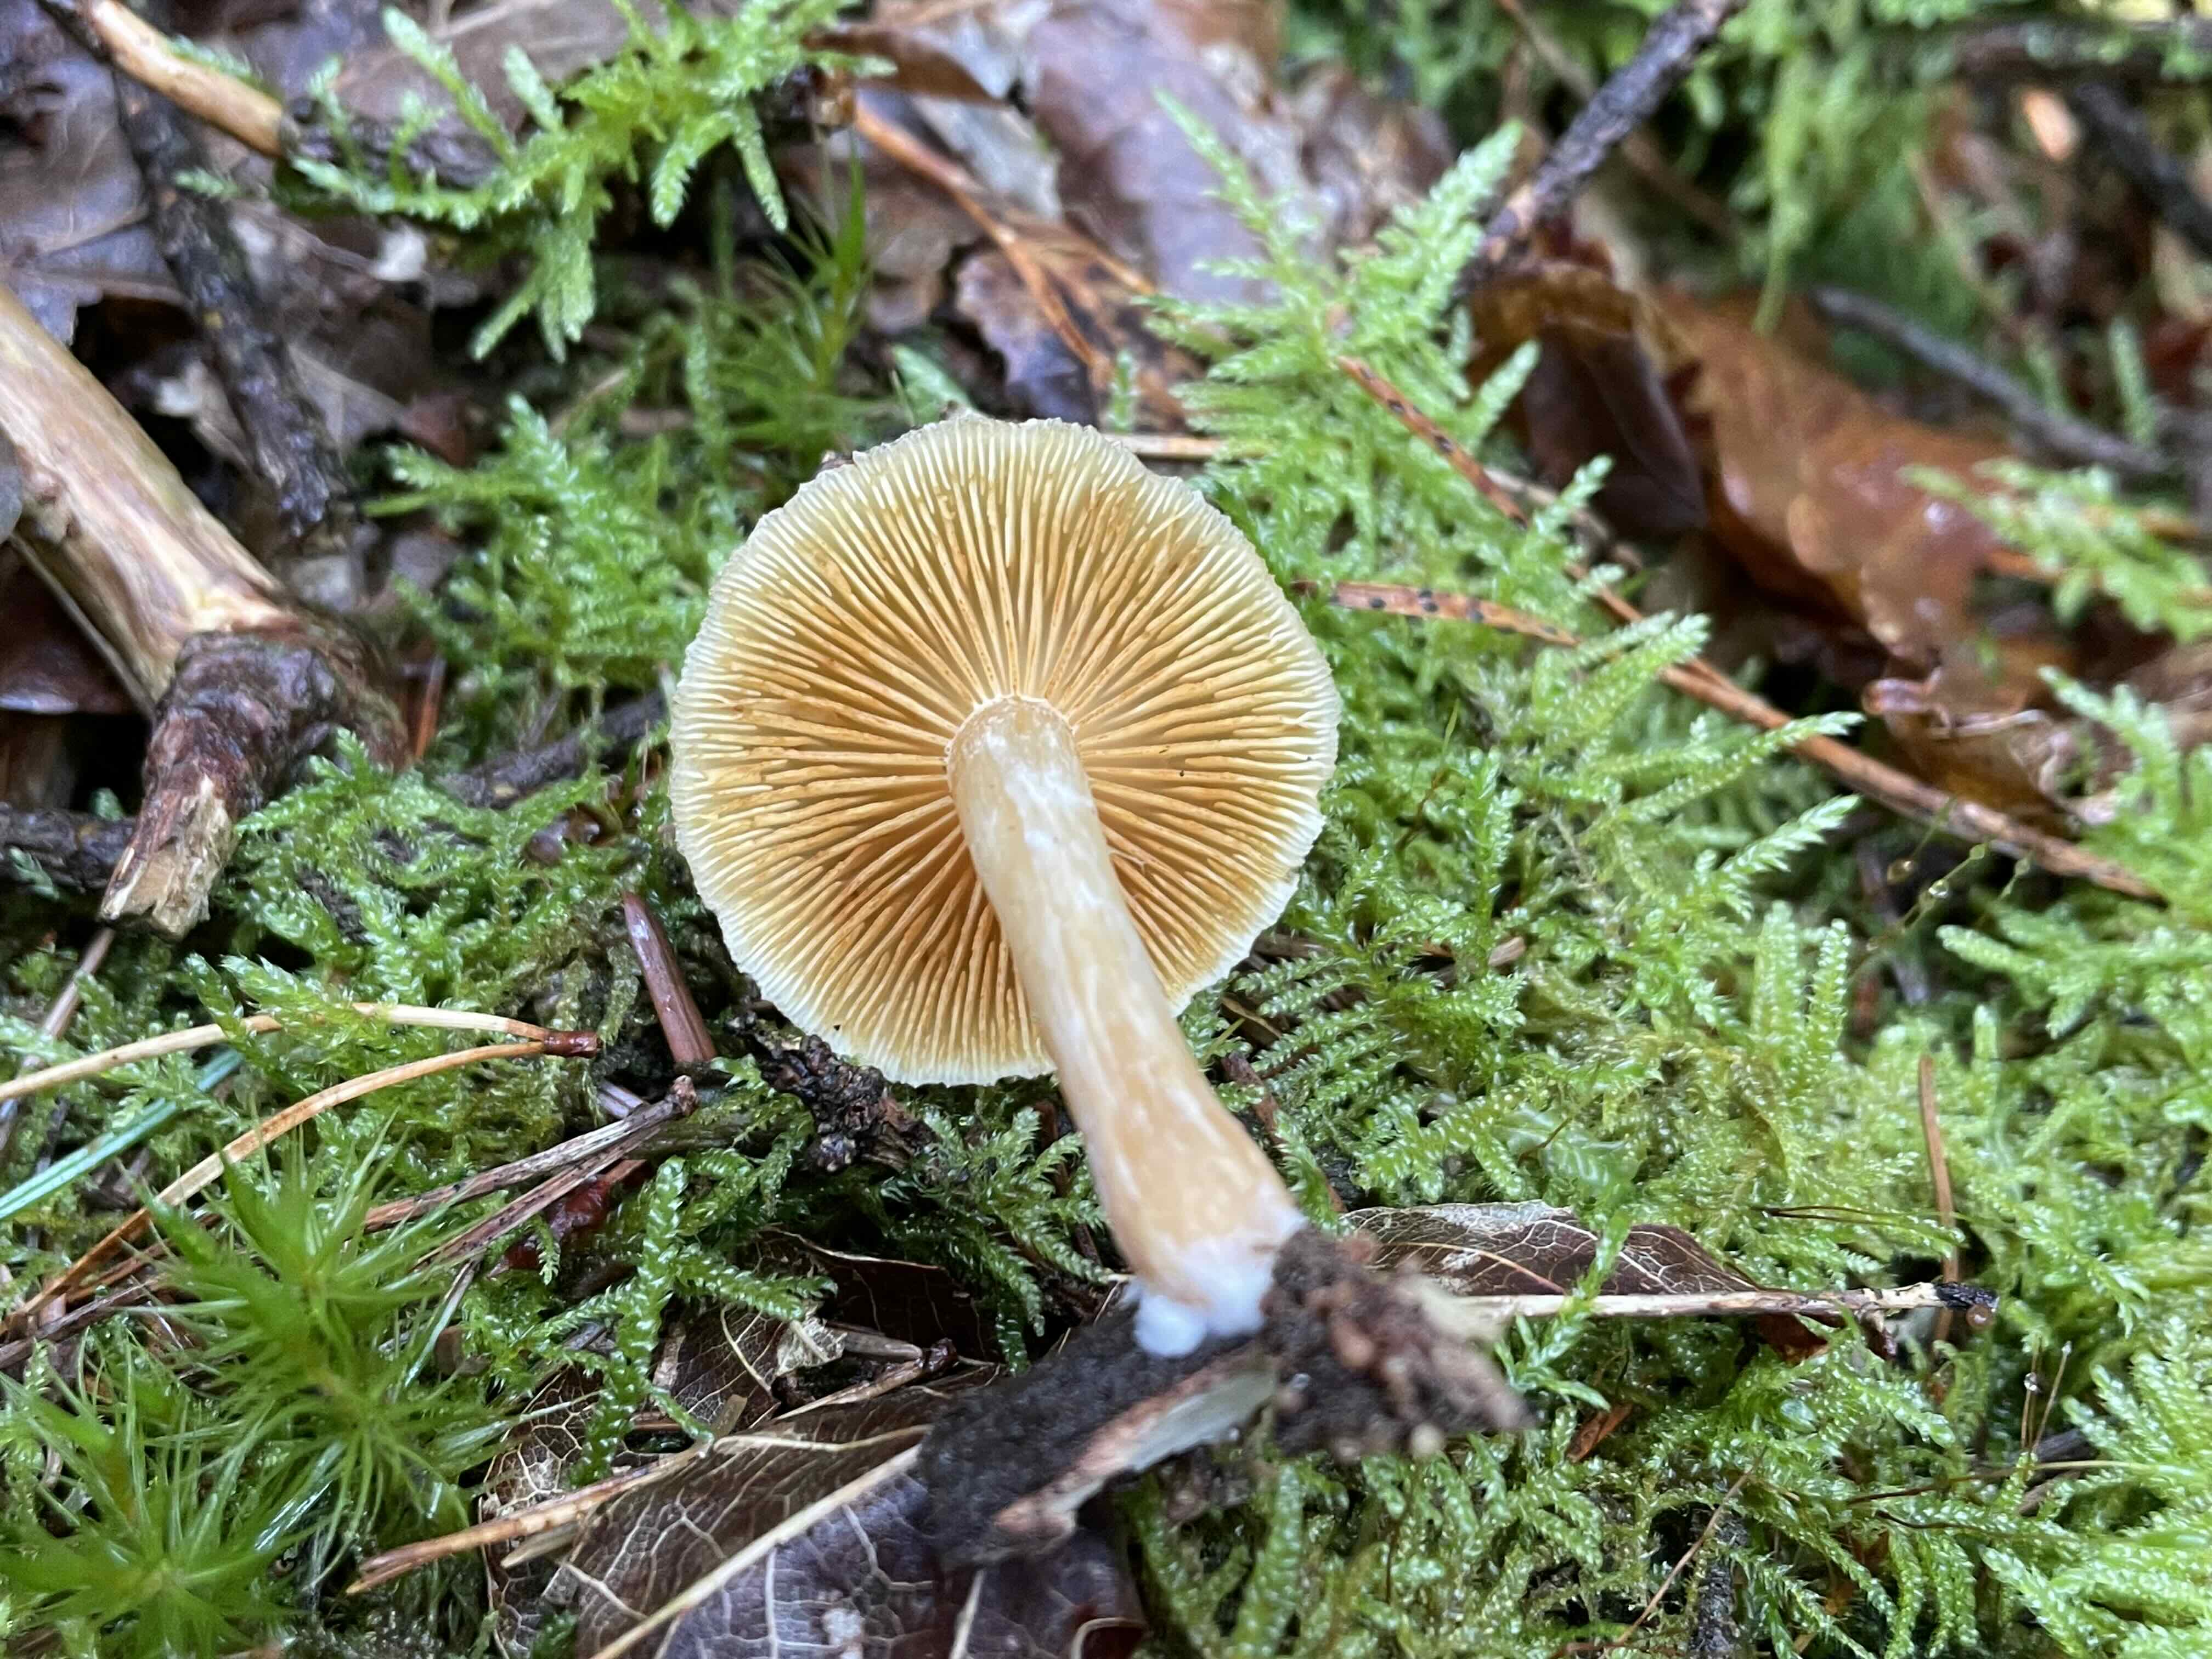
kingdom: Fungi
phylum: Basidiomycota
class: Agaricomycetes
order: Agaricales
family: Hymenogastraceae
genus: Gymnopilus
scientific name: Gymnopilus penetrans
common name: plettet flammehat
